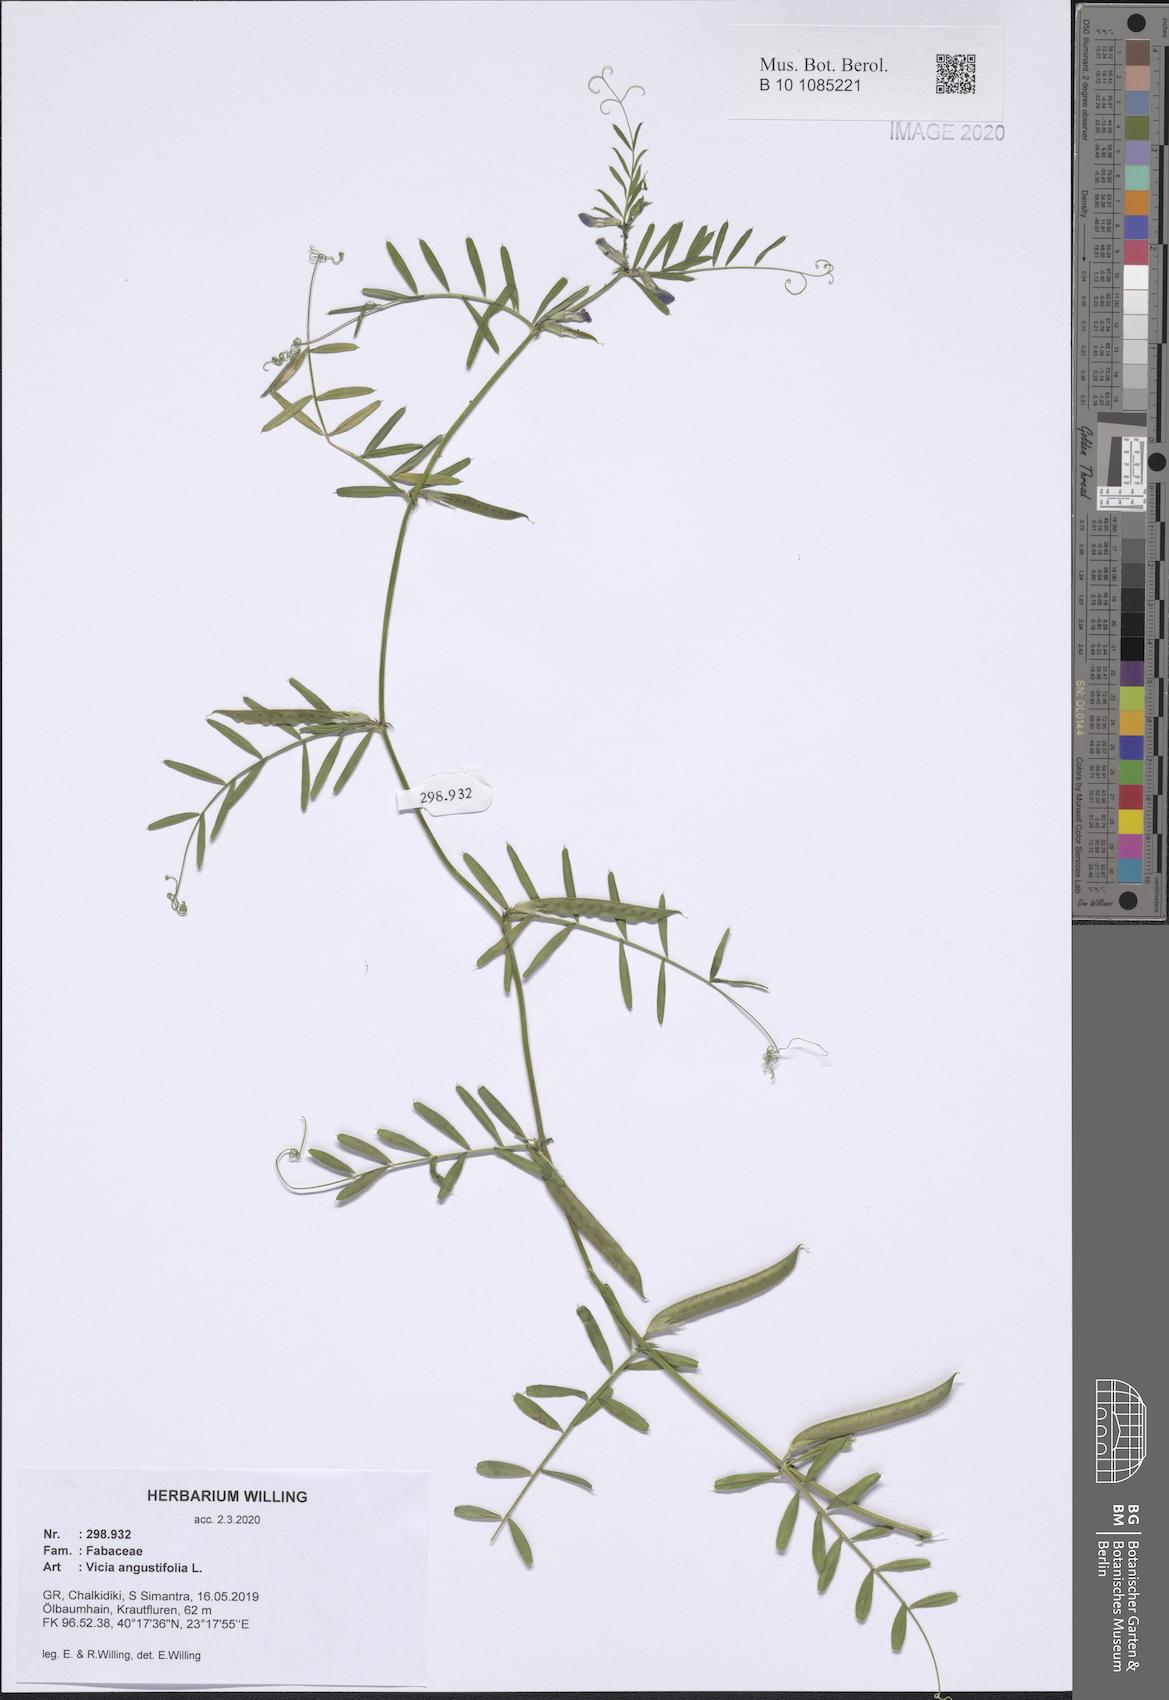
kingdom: Plantae
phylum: Tracheophyta
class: Magnoliopsida
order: Fabales
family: Fabaceae
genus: Vicia
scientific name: Vicia sativa
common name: Garden vetch
